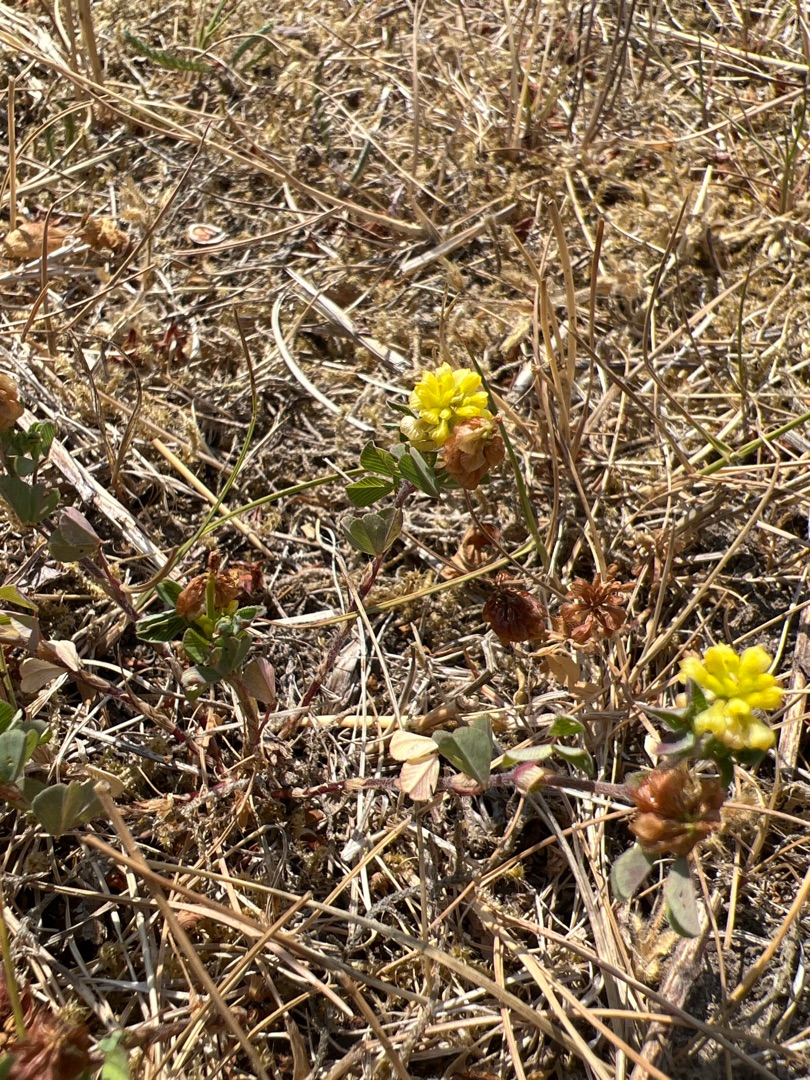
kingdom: Plantae
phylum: Tracheophyta
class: Magnoliopsida
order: Fabales
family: Fabaceae
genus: Trifolium
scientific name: Trifolium campestre
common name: Gul kløver
